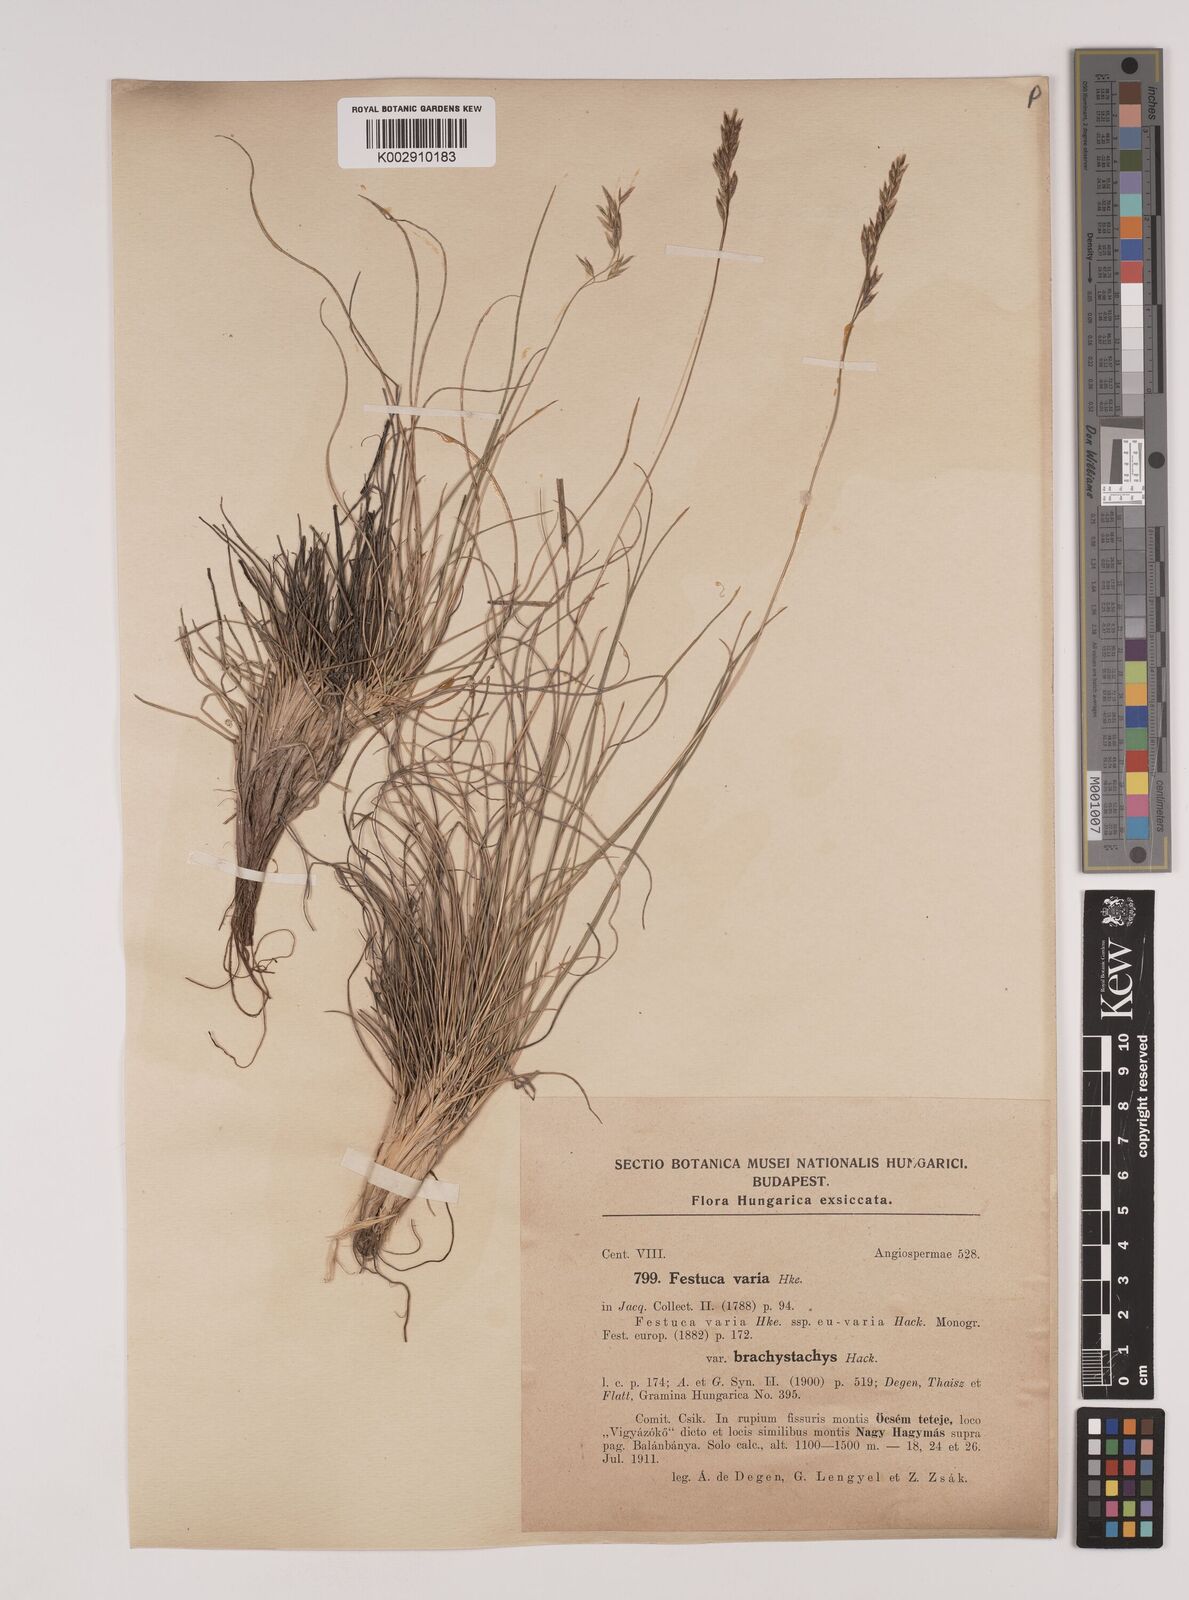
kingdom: Plantae
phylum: Tracheophyta
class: Liliopsida
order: Poales
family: Poaceae
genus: Festuca
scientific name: Festuca varia
